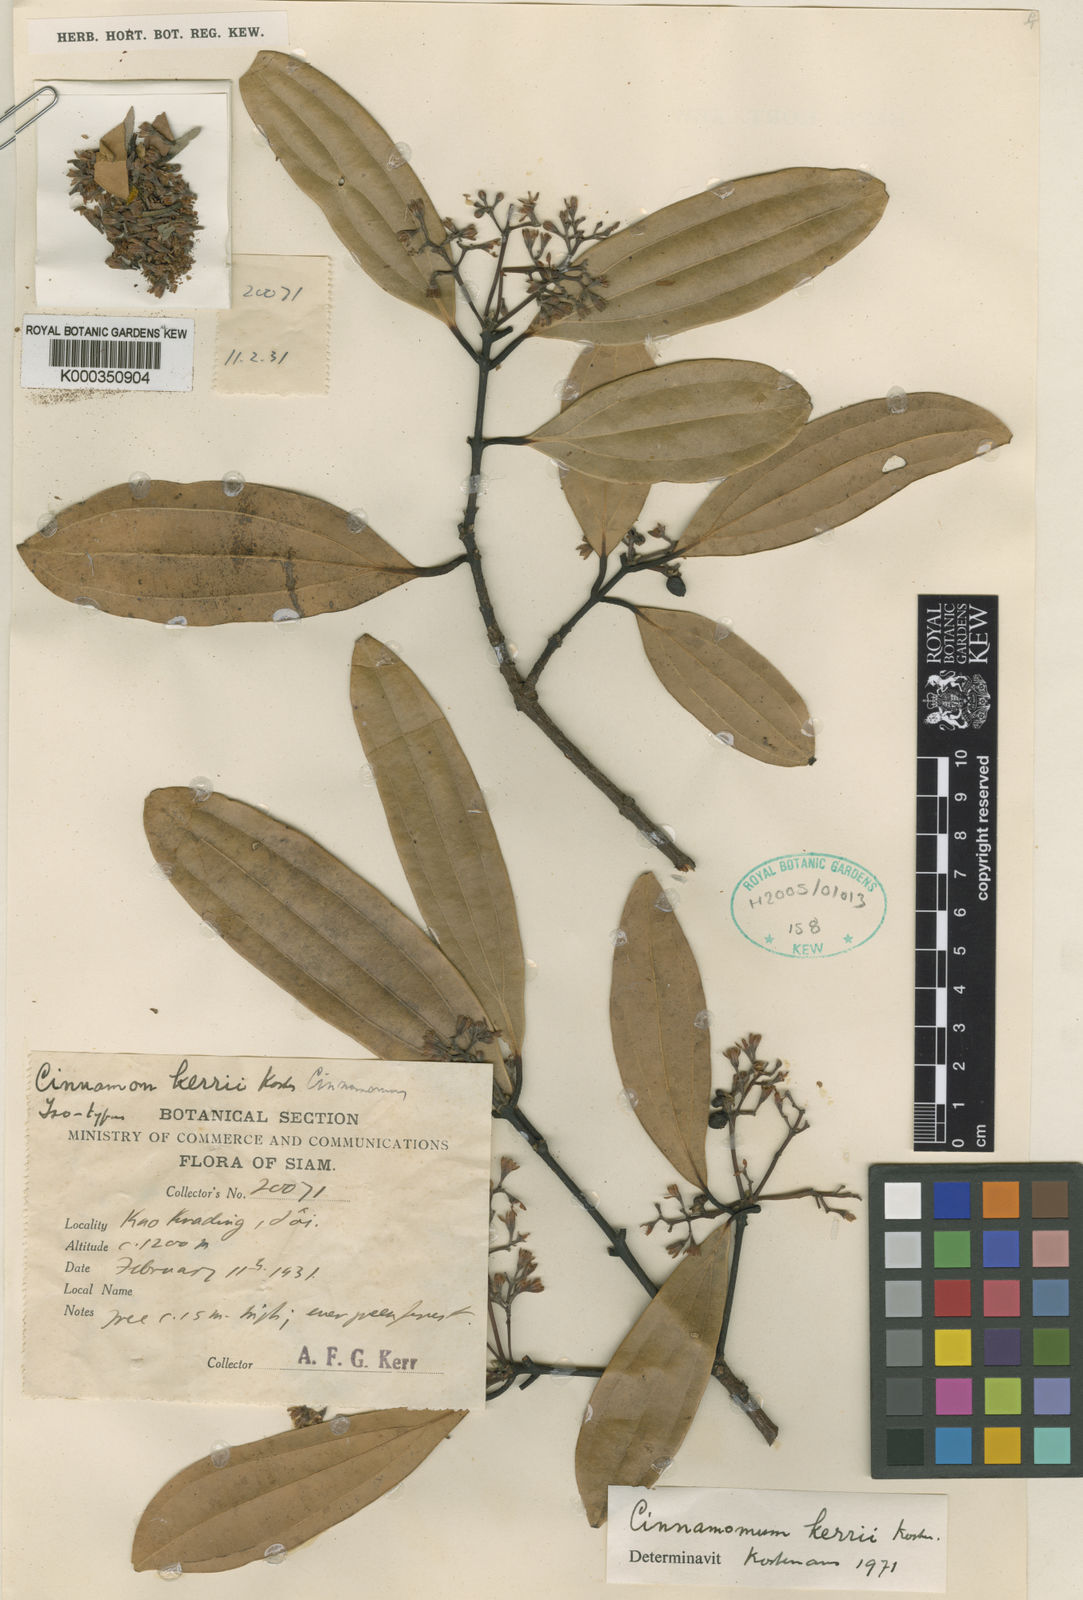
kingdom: Plantae
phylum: Tracheophyta
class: Magnoliopsida
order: Laurales
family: Lauraceae
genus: Cinnamomum
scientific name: Cinnamomum kerrii
